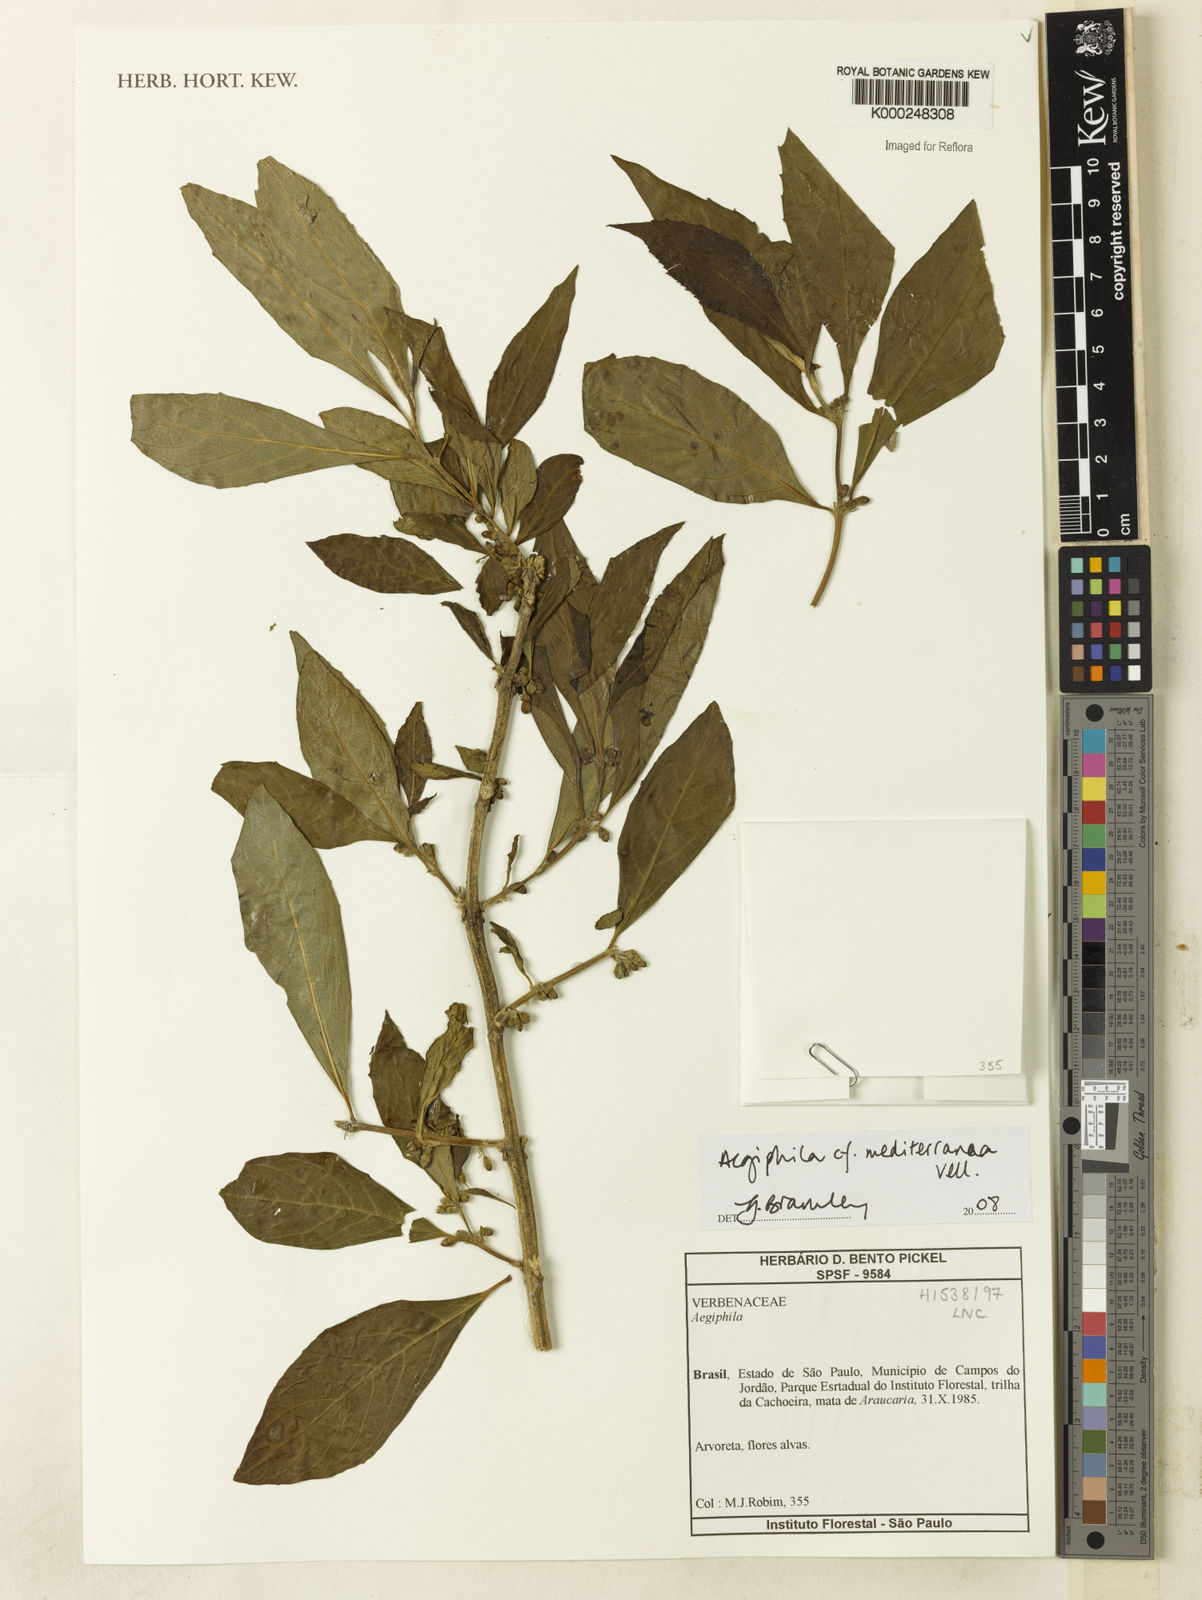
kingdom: Plantae
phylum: Tracheophyta
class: Magnoliopsida
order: Lamiales
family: Lamiaceae
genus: Aegiphila
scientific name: Aegiphila mediterranea
